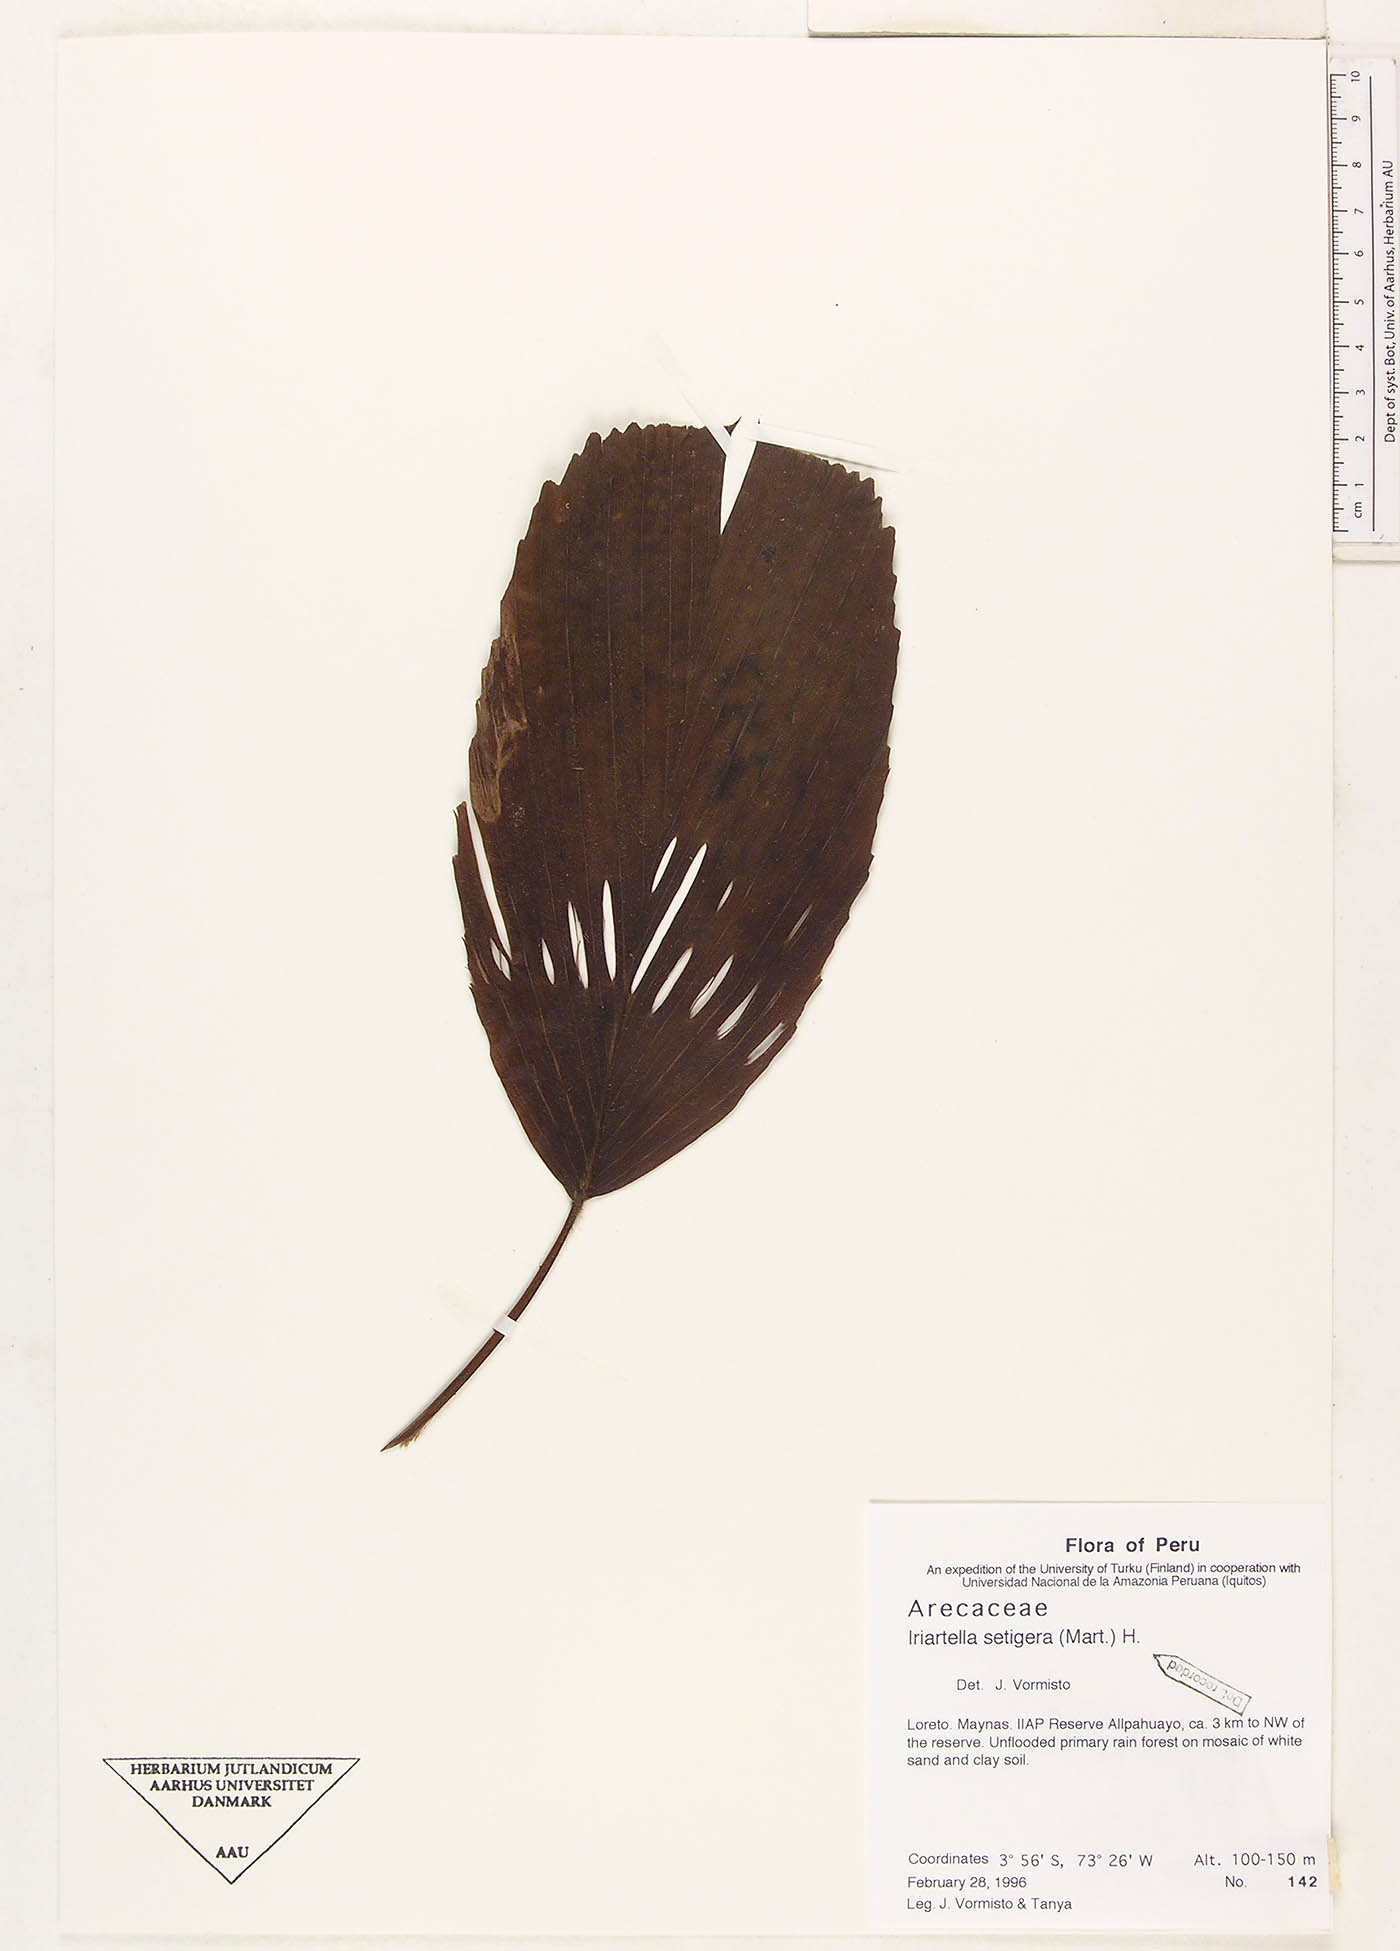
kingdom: Plantae
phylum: Tracheophyta
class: Liliopsida
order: Arecales
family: Arecaceae
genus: Iriartella
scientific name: Iriartella setigera
